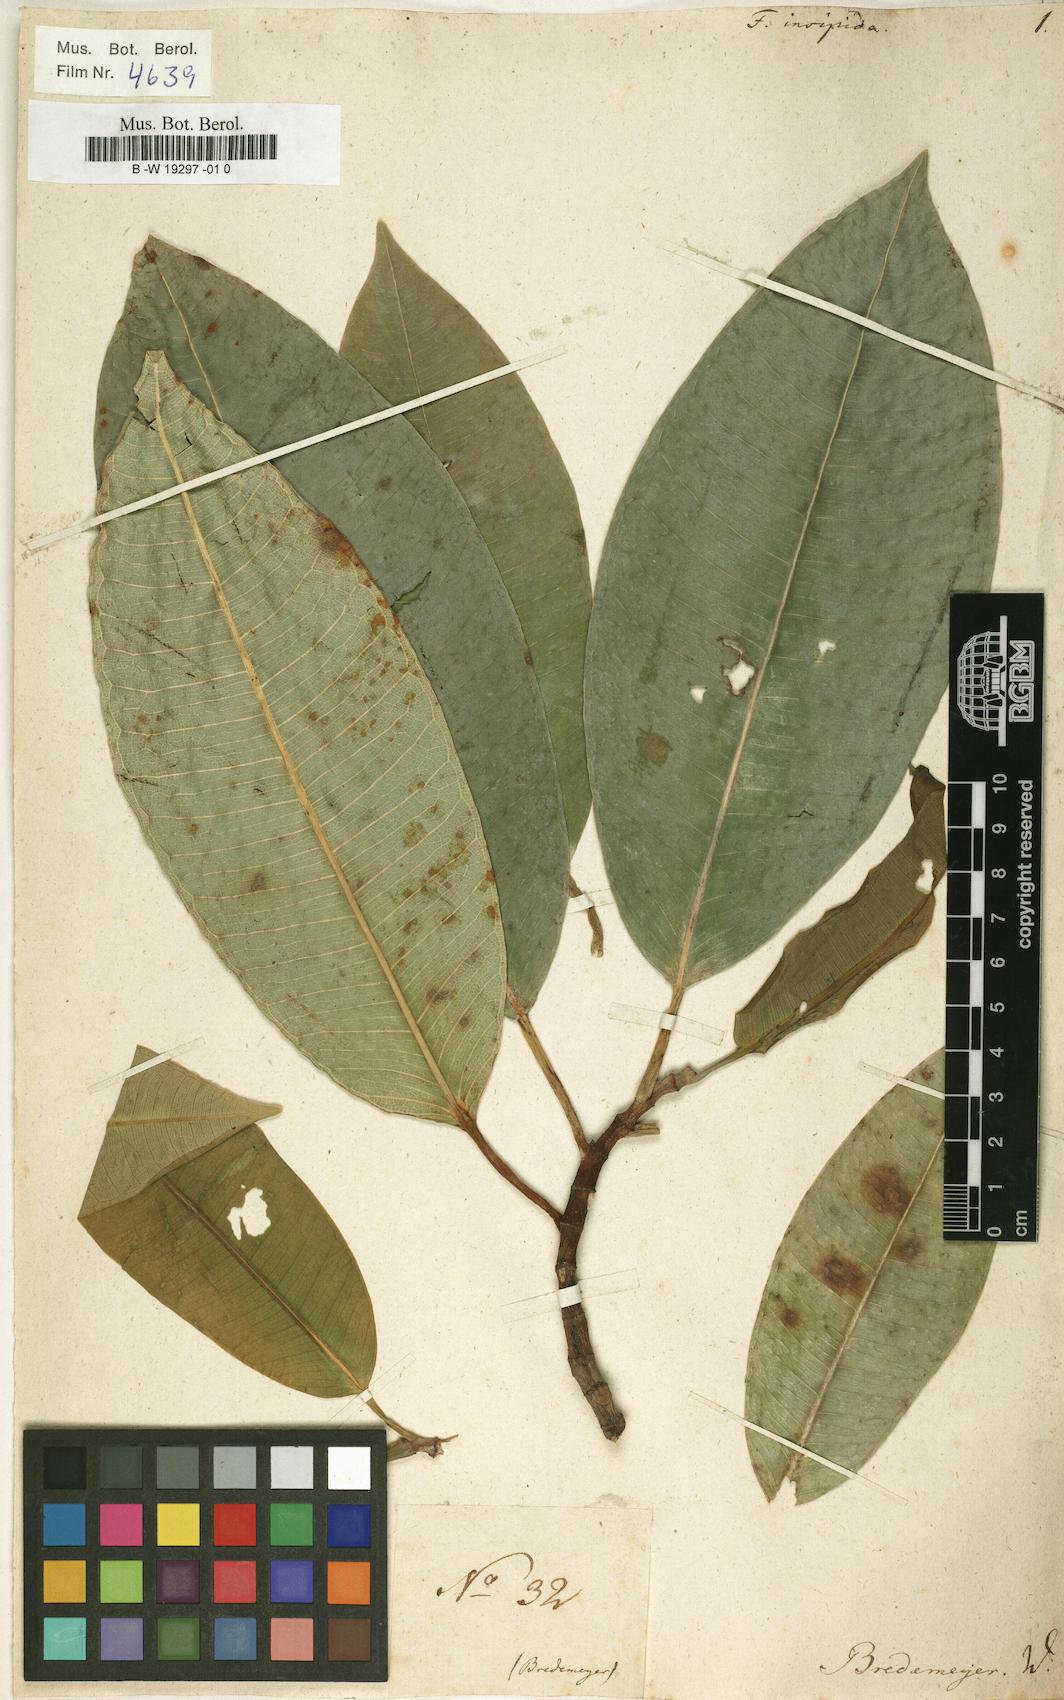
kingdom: Plantae
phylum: Tracheophyta
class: Magnoliopsida
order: Rosales
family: Moraceae
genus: Ficus
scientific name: Ficus insipida
